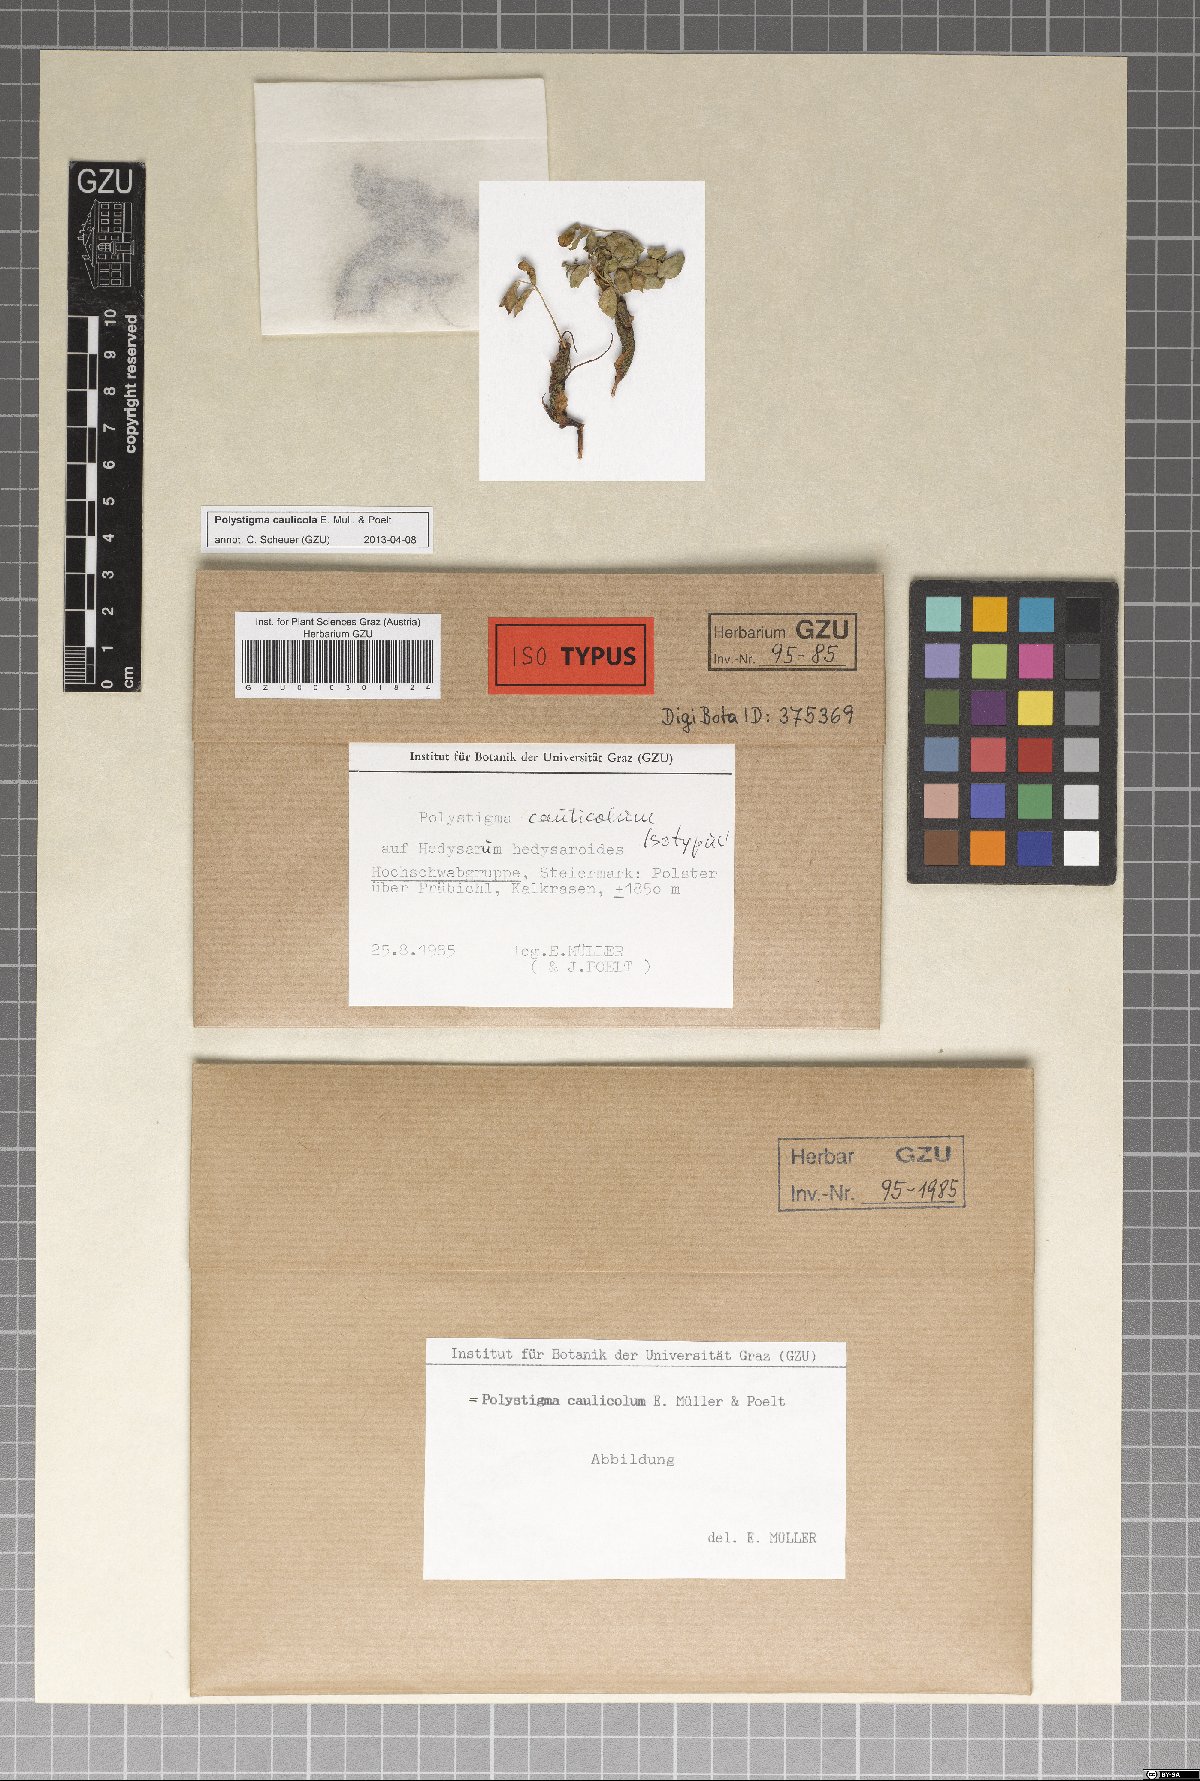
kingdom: Fungi
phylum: Ascomycota
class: Sordariomycetes
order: Phyllachorales
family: Phyllachoraceae
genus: Polystigma
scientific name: Polystigma caulicola
